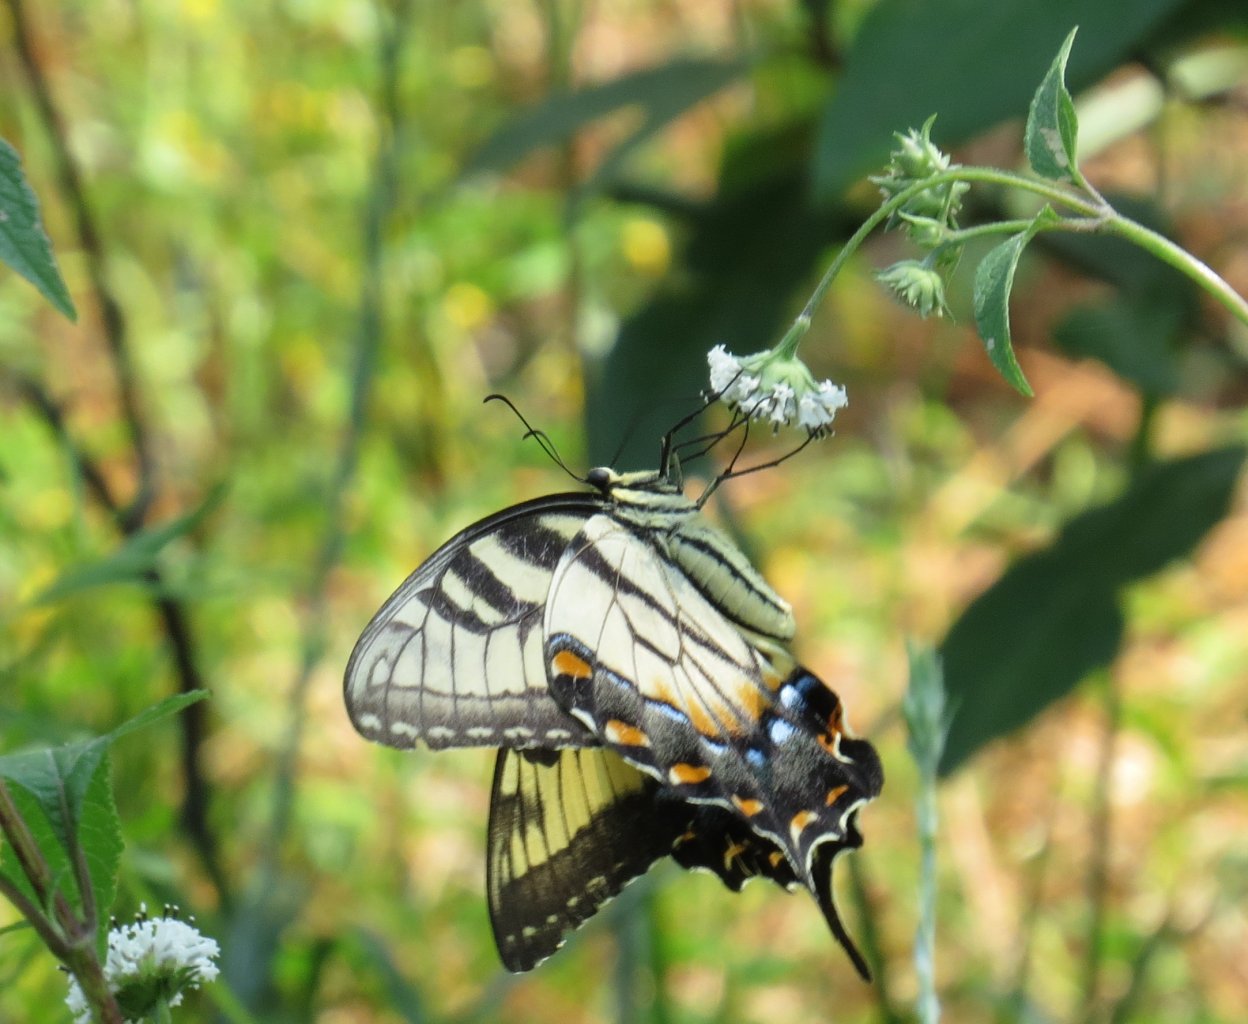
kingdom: Animalia
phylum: Arthropoda
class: Insecta
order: Lepidoptera
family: Papilionidae
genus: Pterourus
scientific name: Pterourus glaucus
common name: Eastern Tiger Swallowtail
